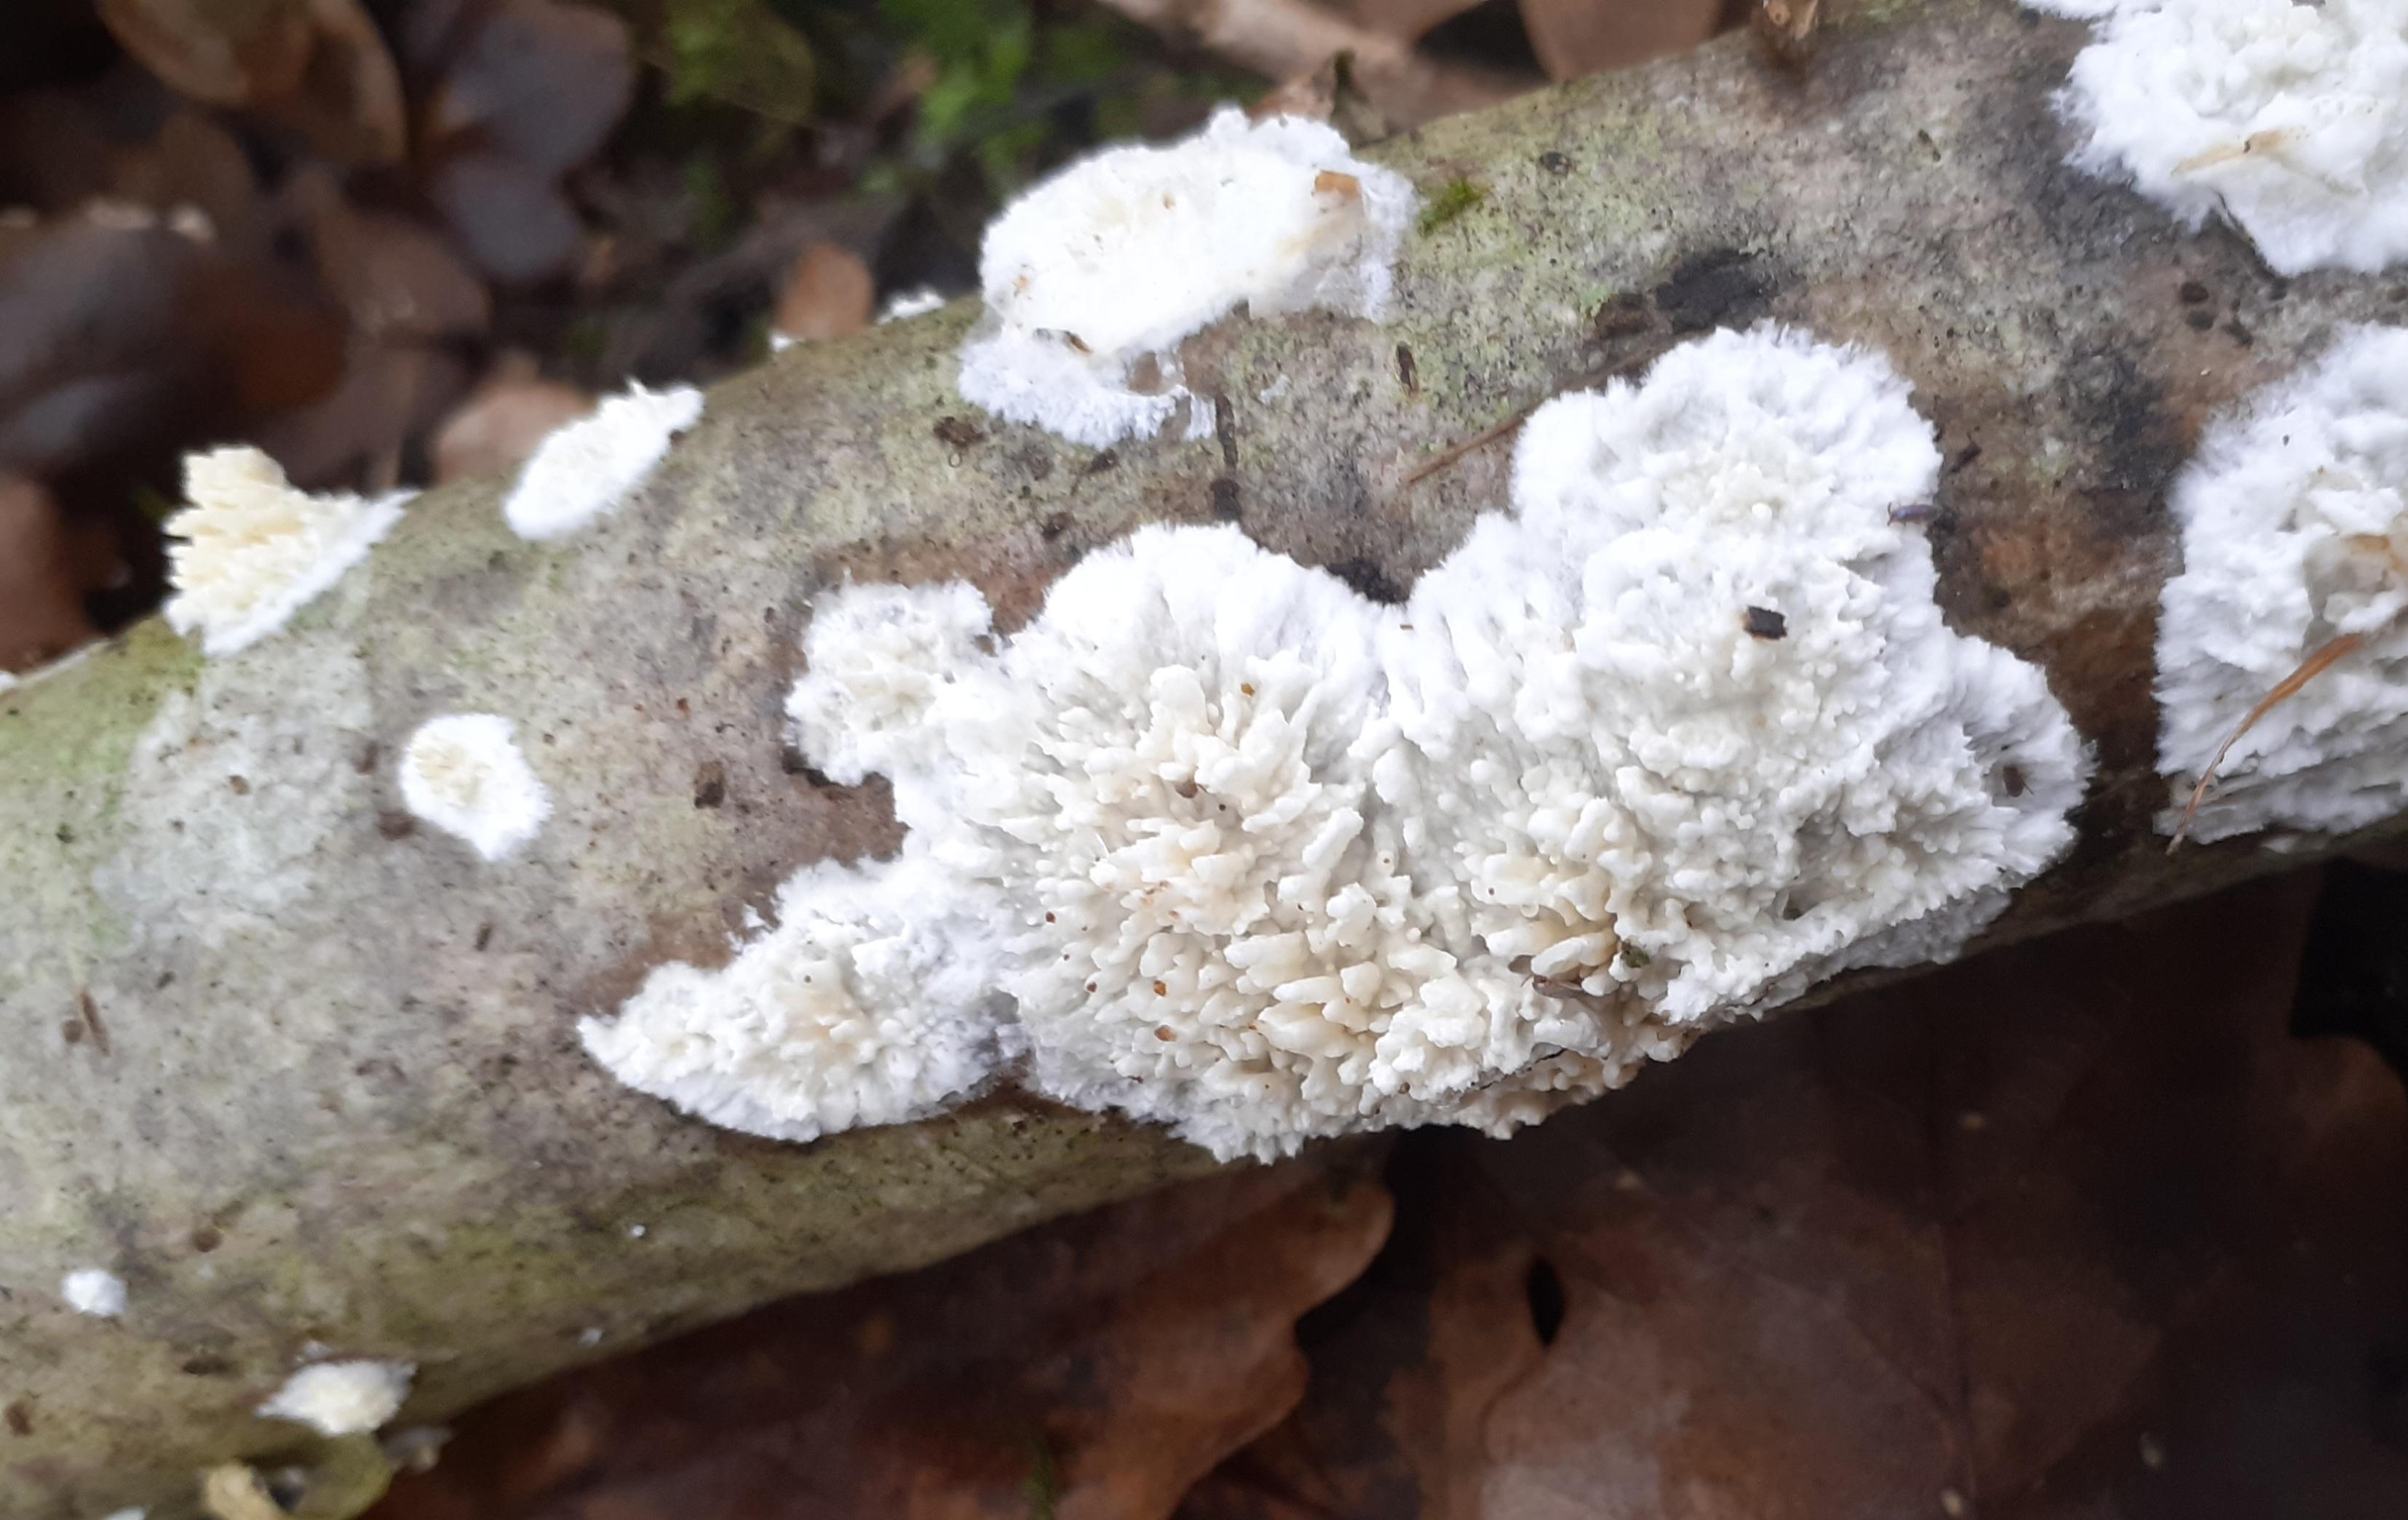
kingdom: Fungi
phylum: Basidiomycota
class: Agaricomycetes
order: Hymenochaetales
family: Schizoporaceae
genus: Xylodon
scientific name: Xylodon radula
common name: grovtandet kalkskind
